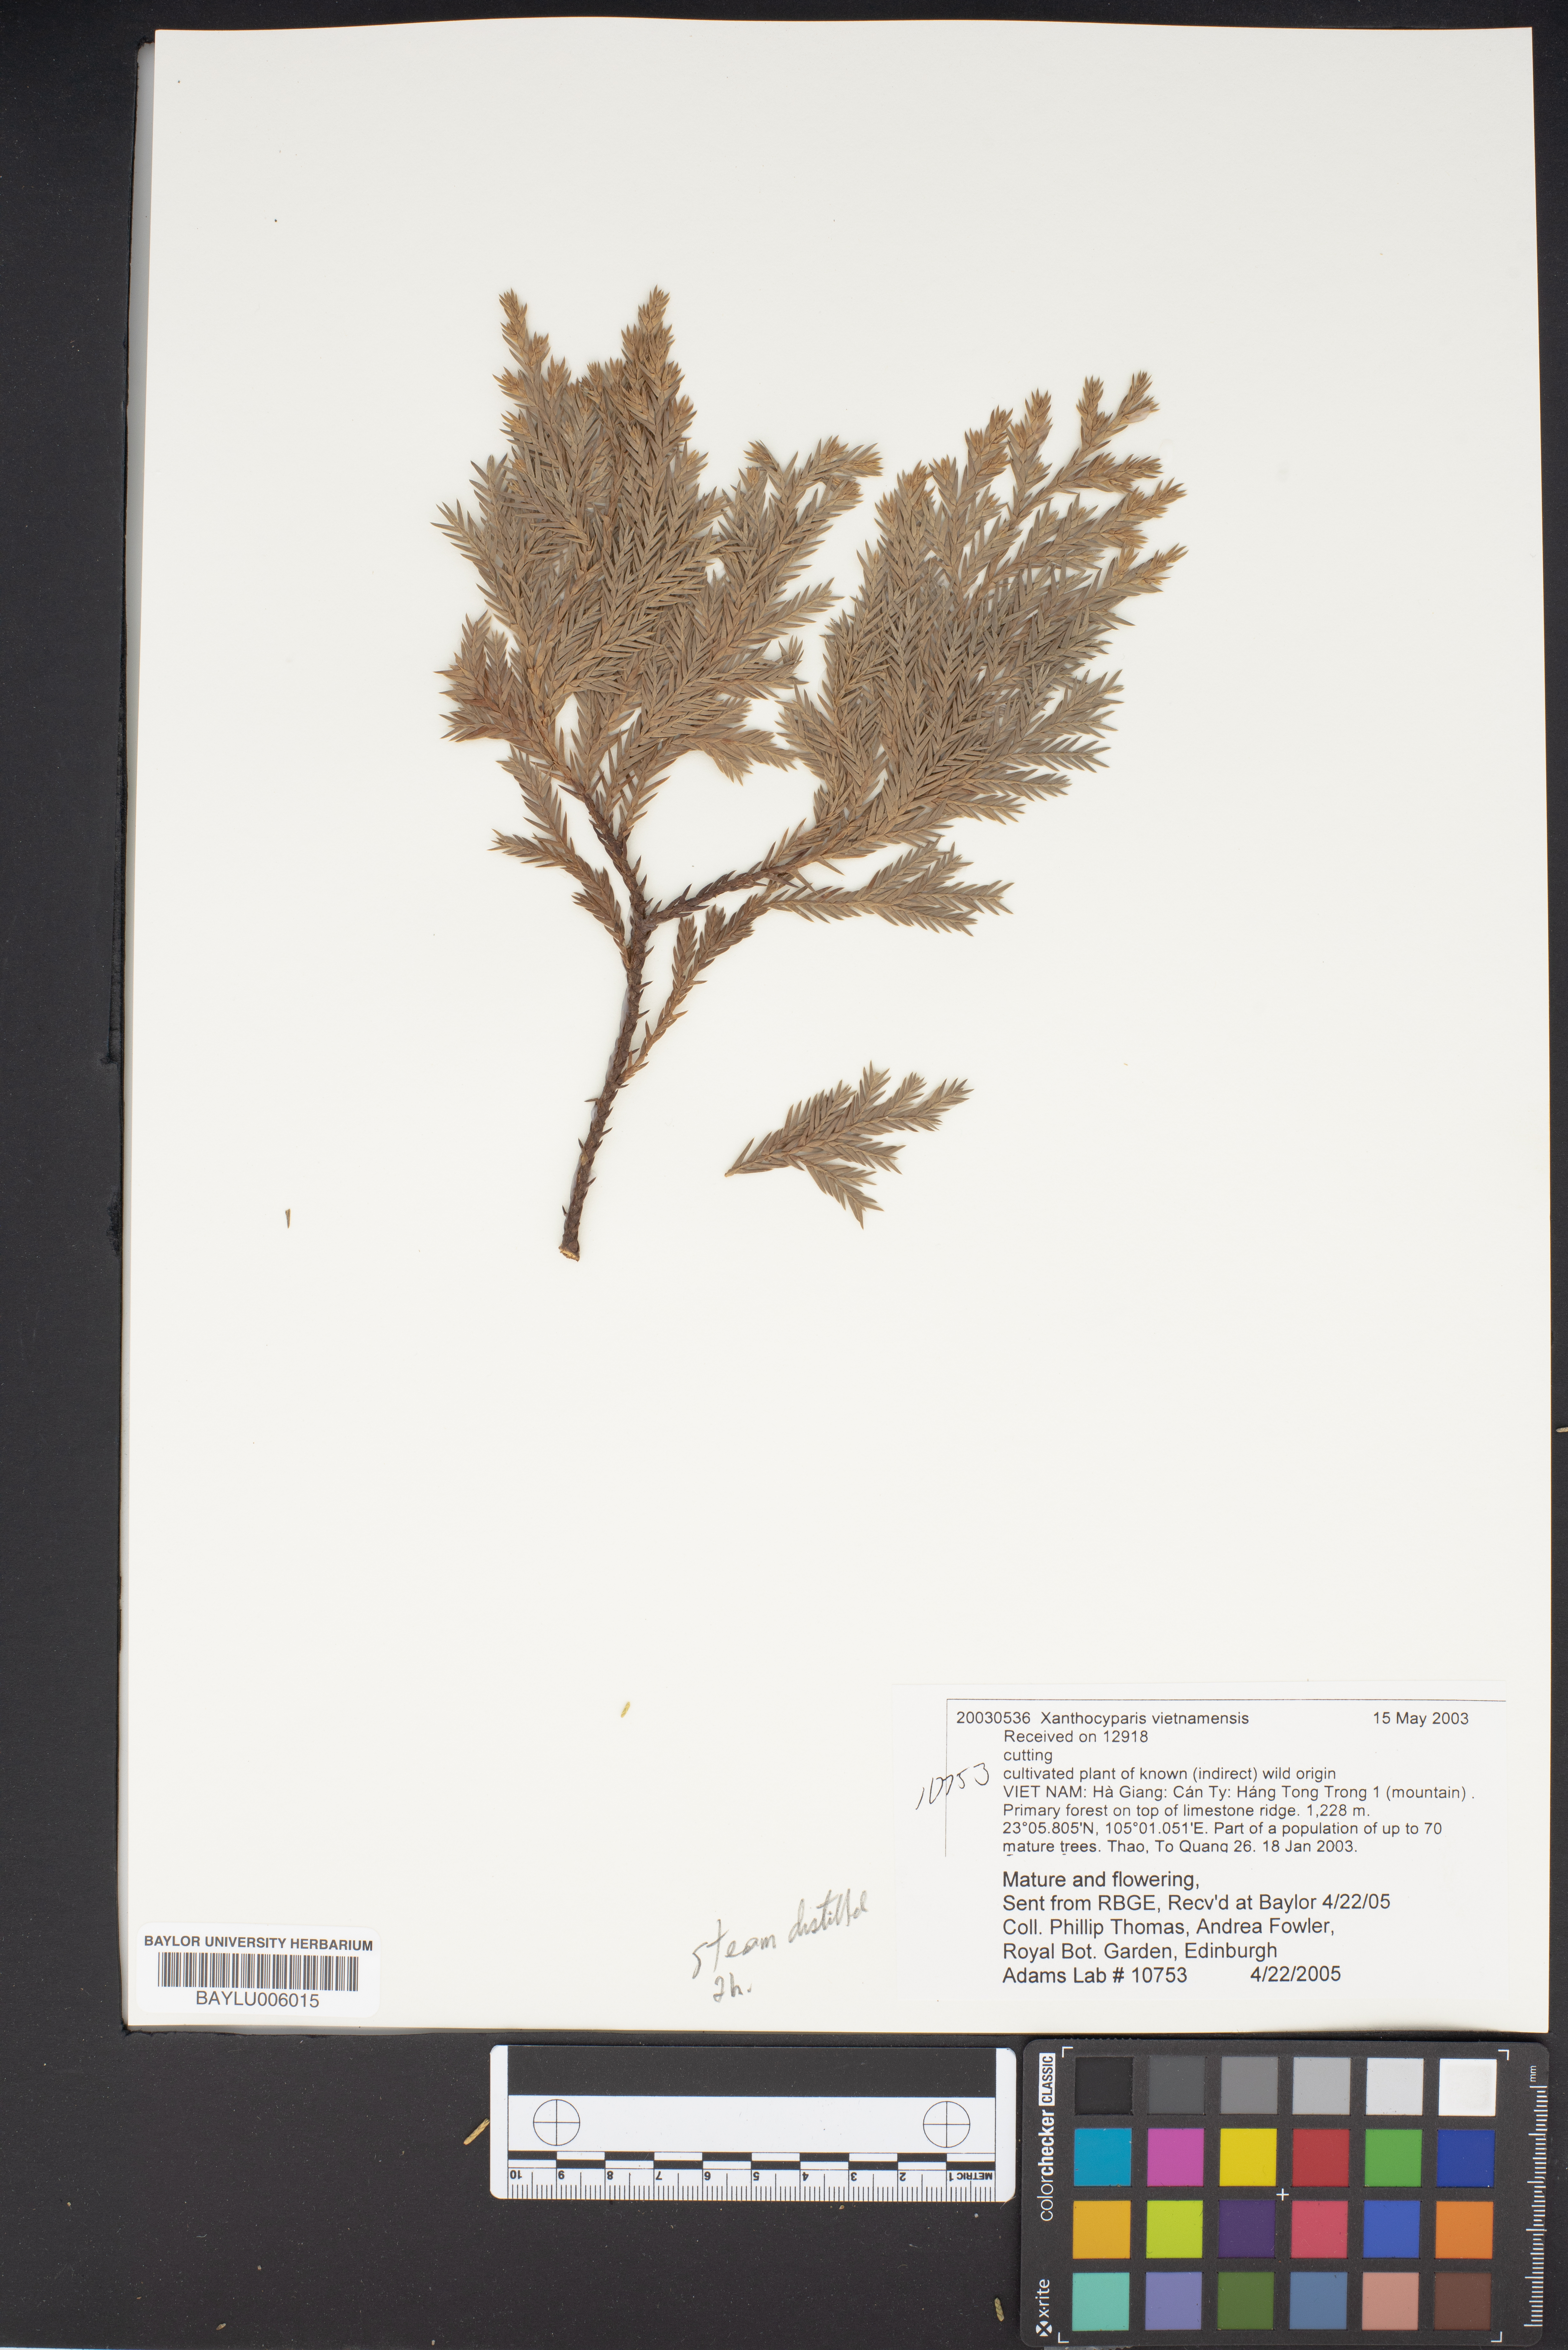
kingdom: Plantae
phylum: Tracheophyta
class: Pinopsida
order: Pinales
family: Cupressaceae
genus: Xanthocyparis
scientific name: Xanthocyparis vietnamensis
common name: Golden vietnamese cypress
